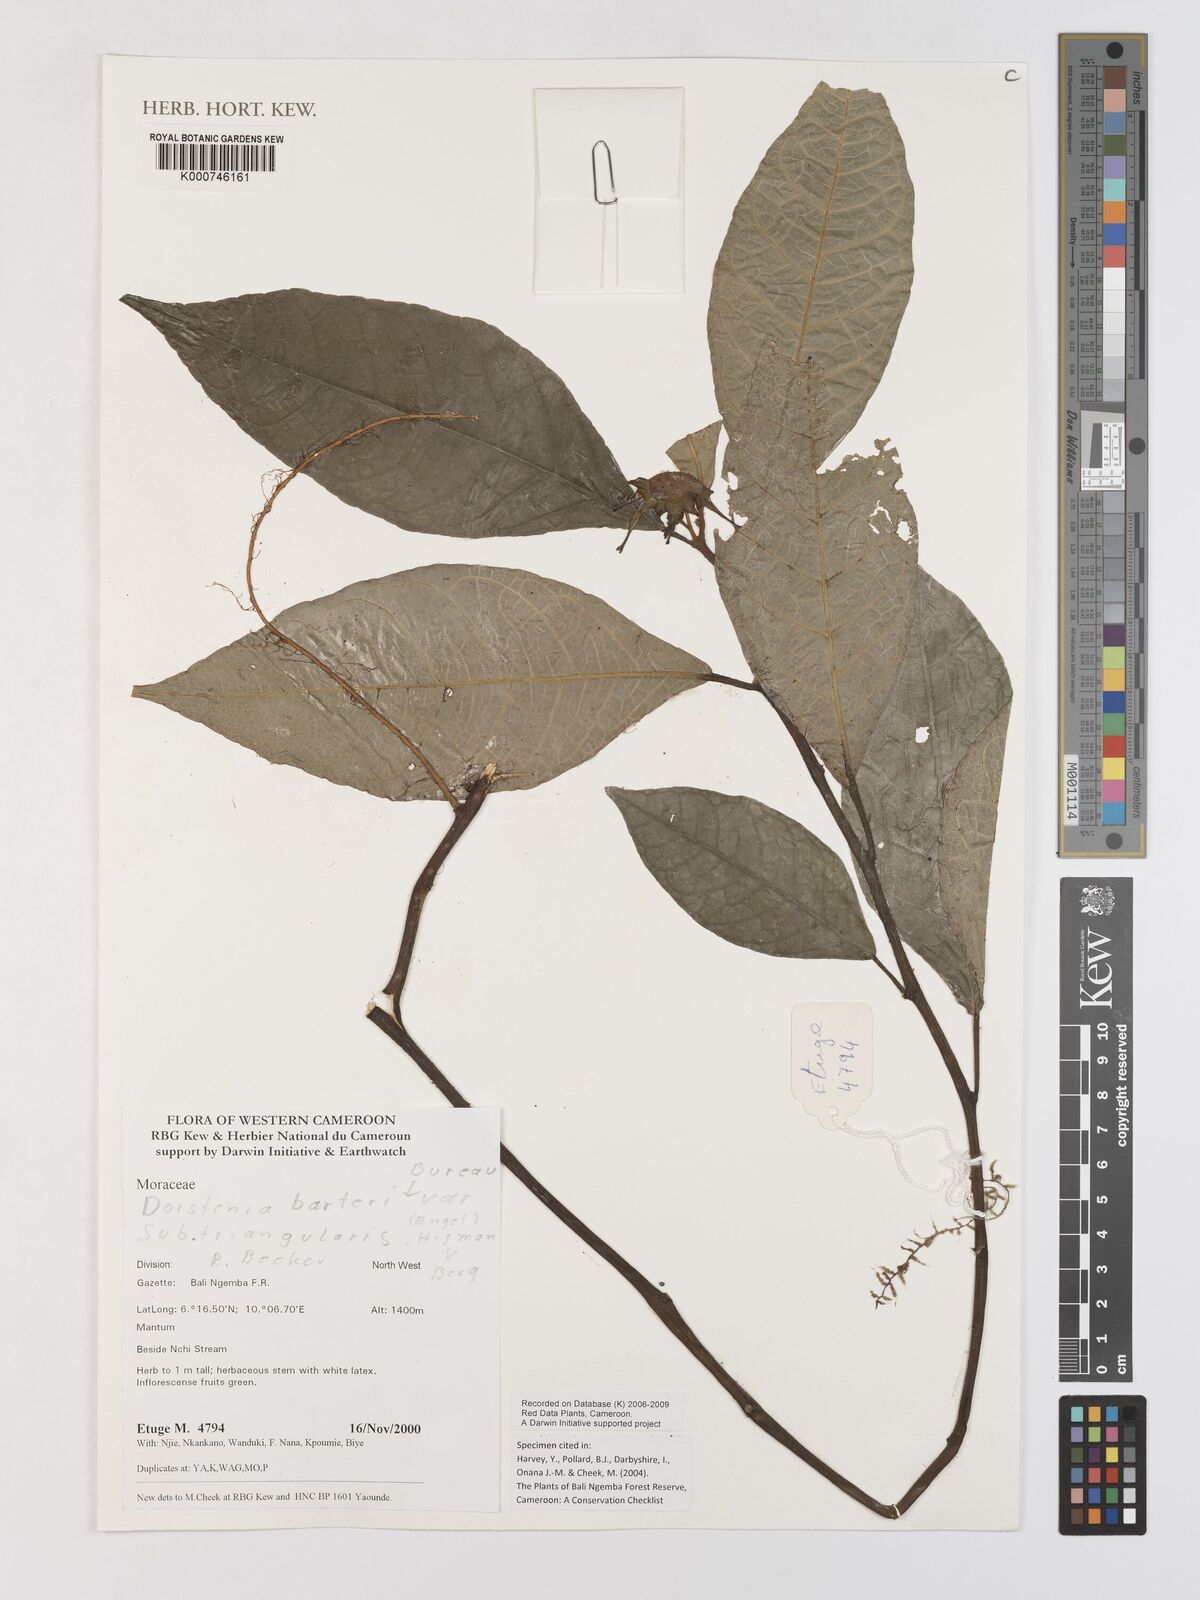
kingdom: Plantae
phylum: Tracheophyta
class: Magnoliopsida
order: Rosales
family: Moraceae
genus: Dorstenia
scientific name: Dorstenia barteri
